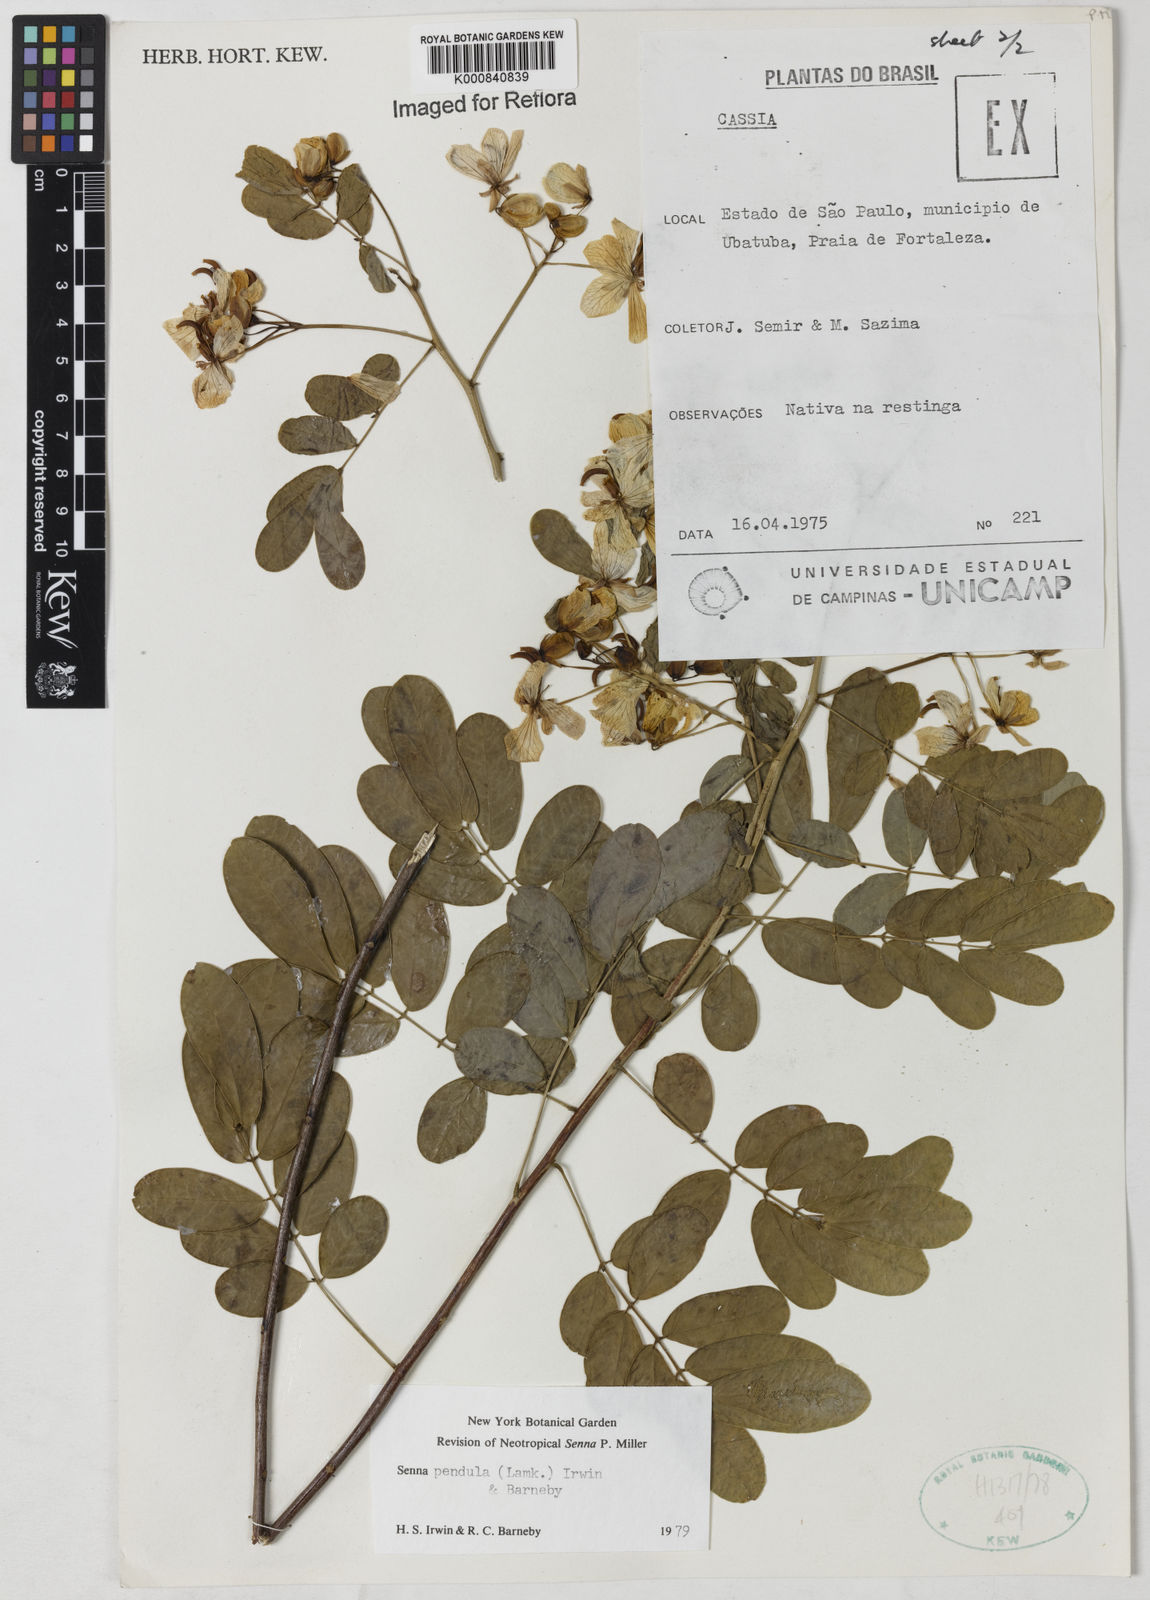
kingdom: Plantae
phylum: Tracheophyta
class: Magnoliopsida
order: Fabales
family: Fabaceae
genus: Senna
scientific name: Senna pendula
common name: Easter cassia
